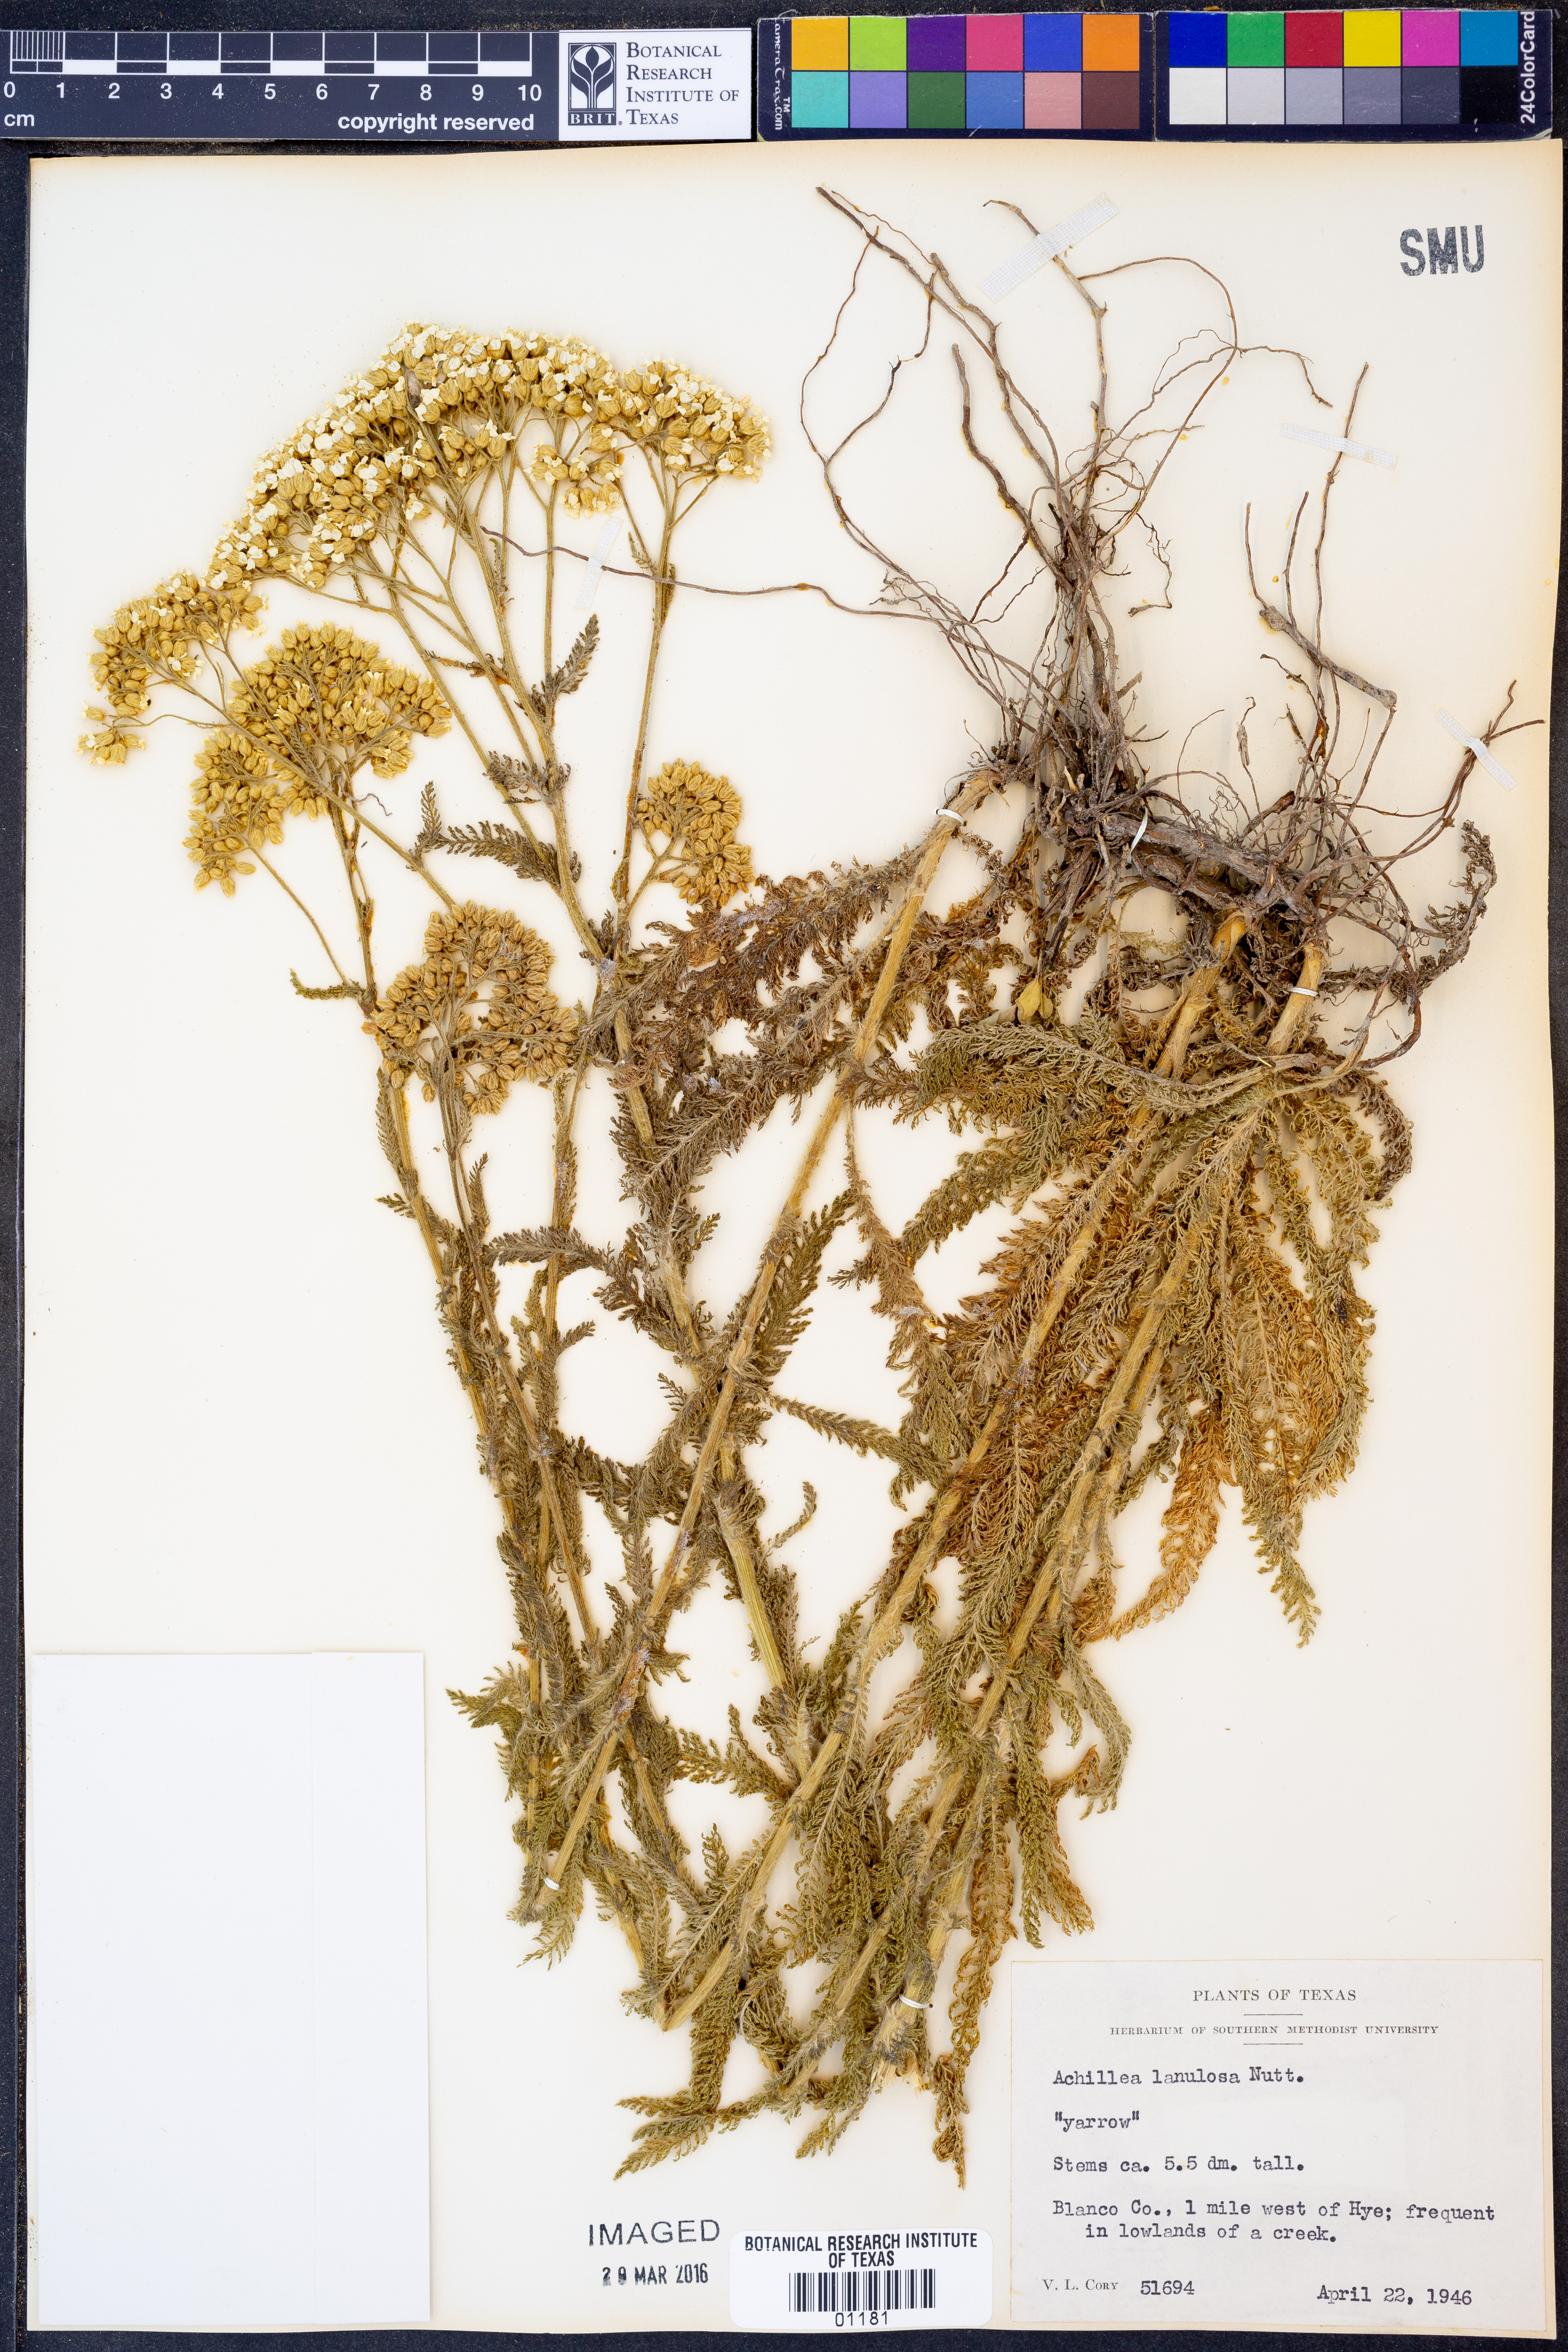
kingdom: Plantae
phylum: Tracheophyta
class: Magnoliopsida
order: Asterales
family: Asteraceae
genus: Achillea
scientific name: Achillea millefolium
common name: Yarrow
